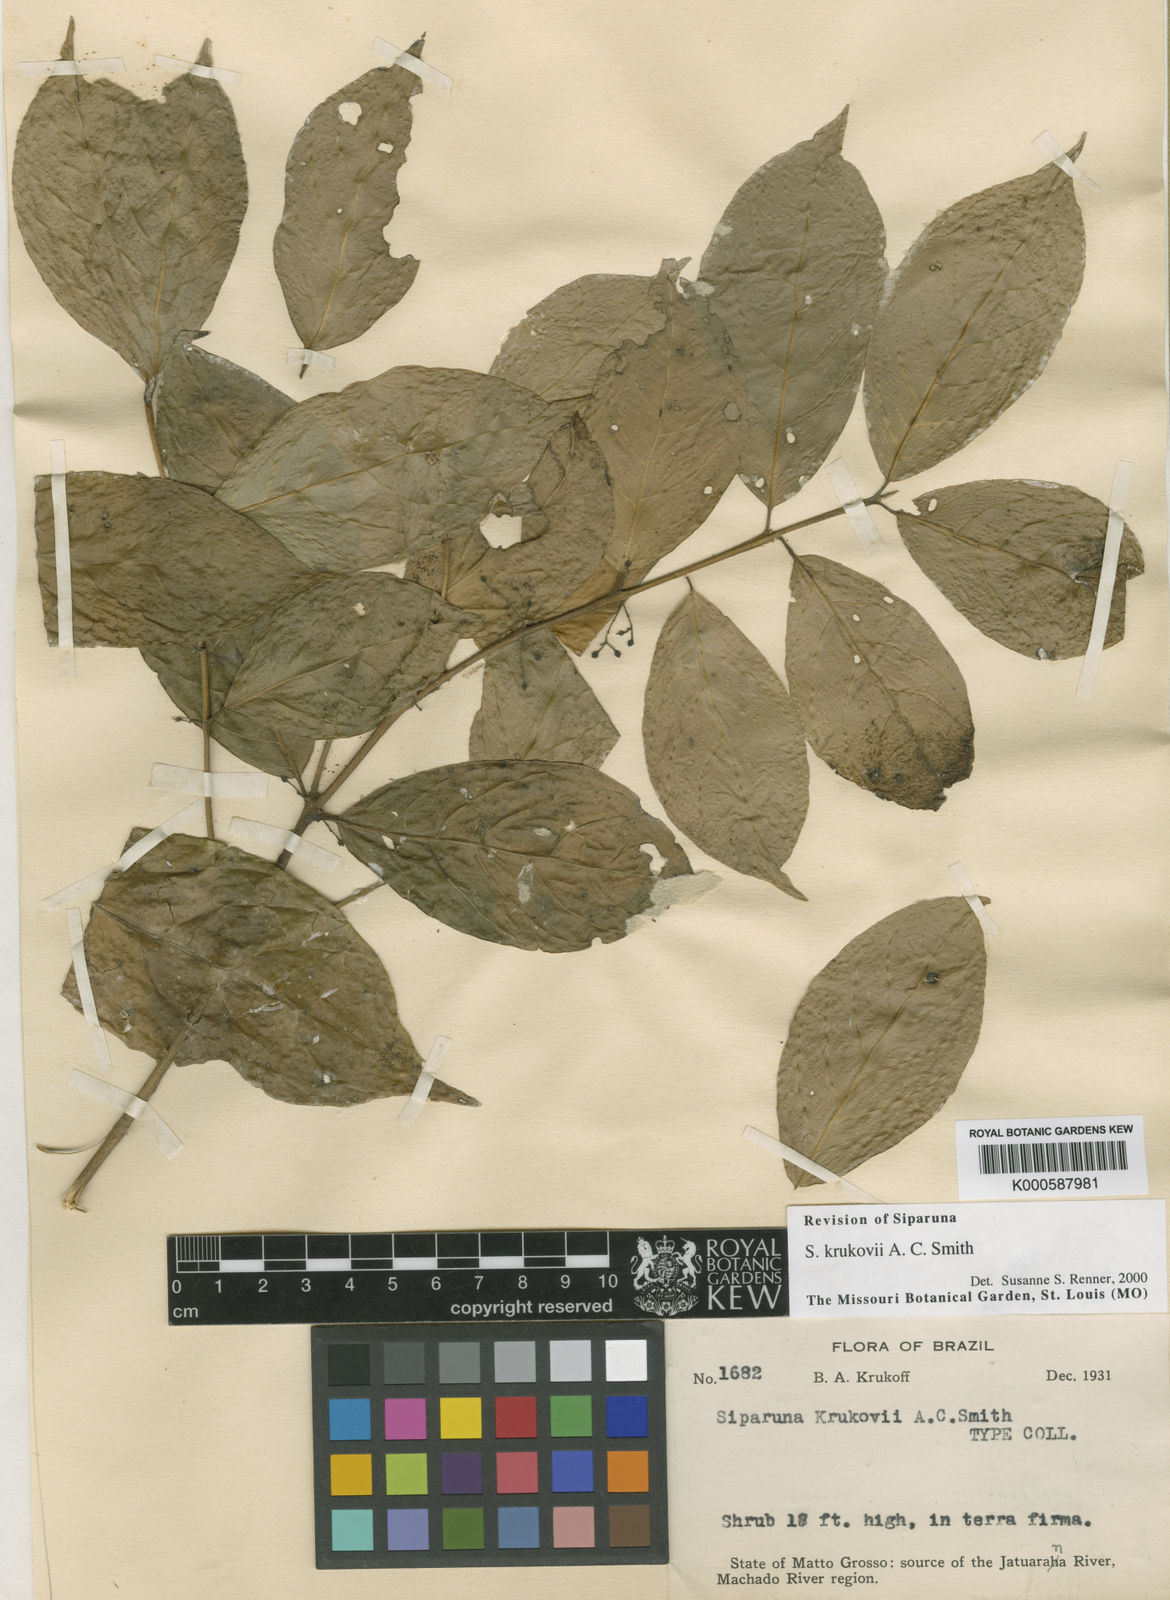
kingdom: Plantae
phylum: Tracheophyta
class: Magnoliopsida
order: Laurales
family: Siparunaceae
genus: Siparuna
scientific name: Siparuna krukovii
